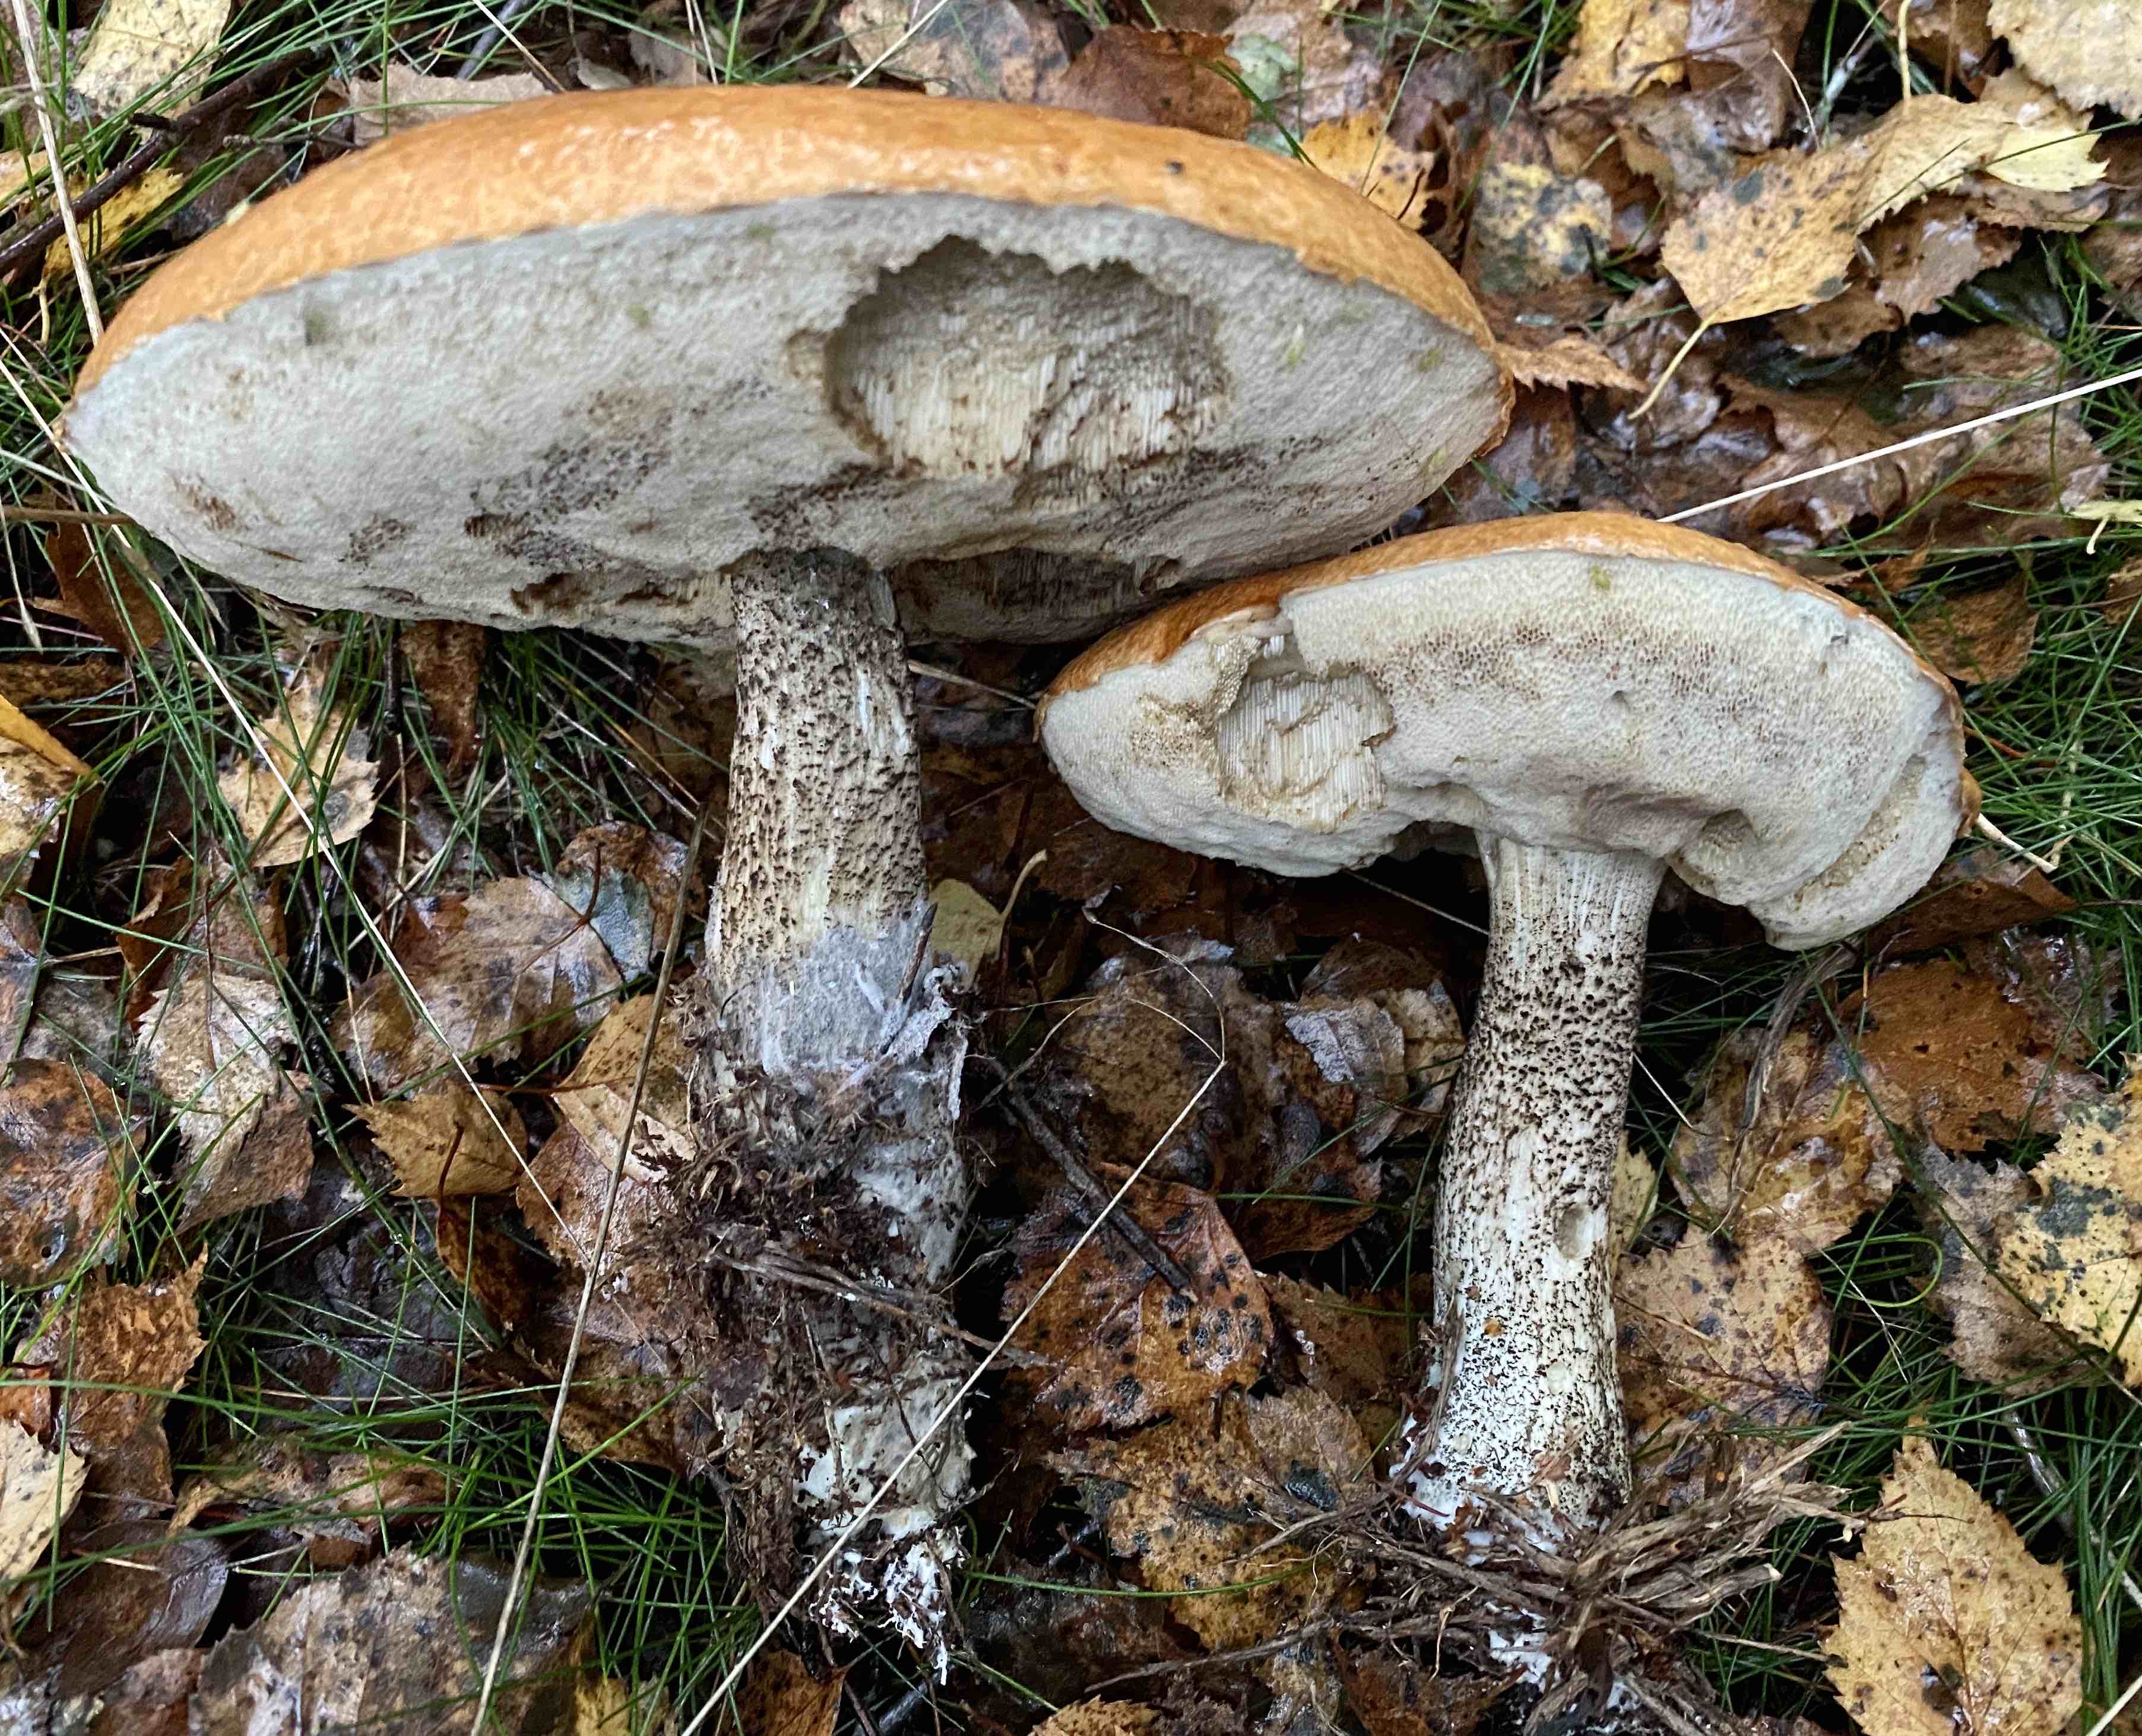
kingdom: Fungi
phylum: Basidiomycota
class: Agaricomycetes
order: Boletales
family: Boletaceae
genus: Leccinum
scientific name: Leccinum versipelle
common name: orange skælrørhat
